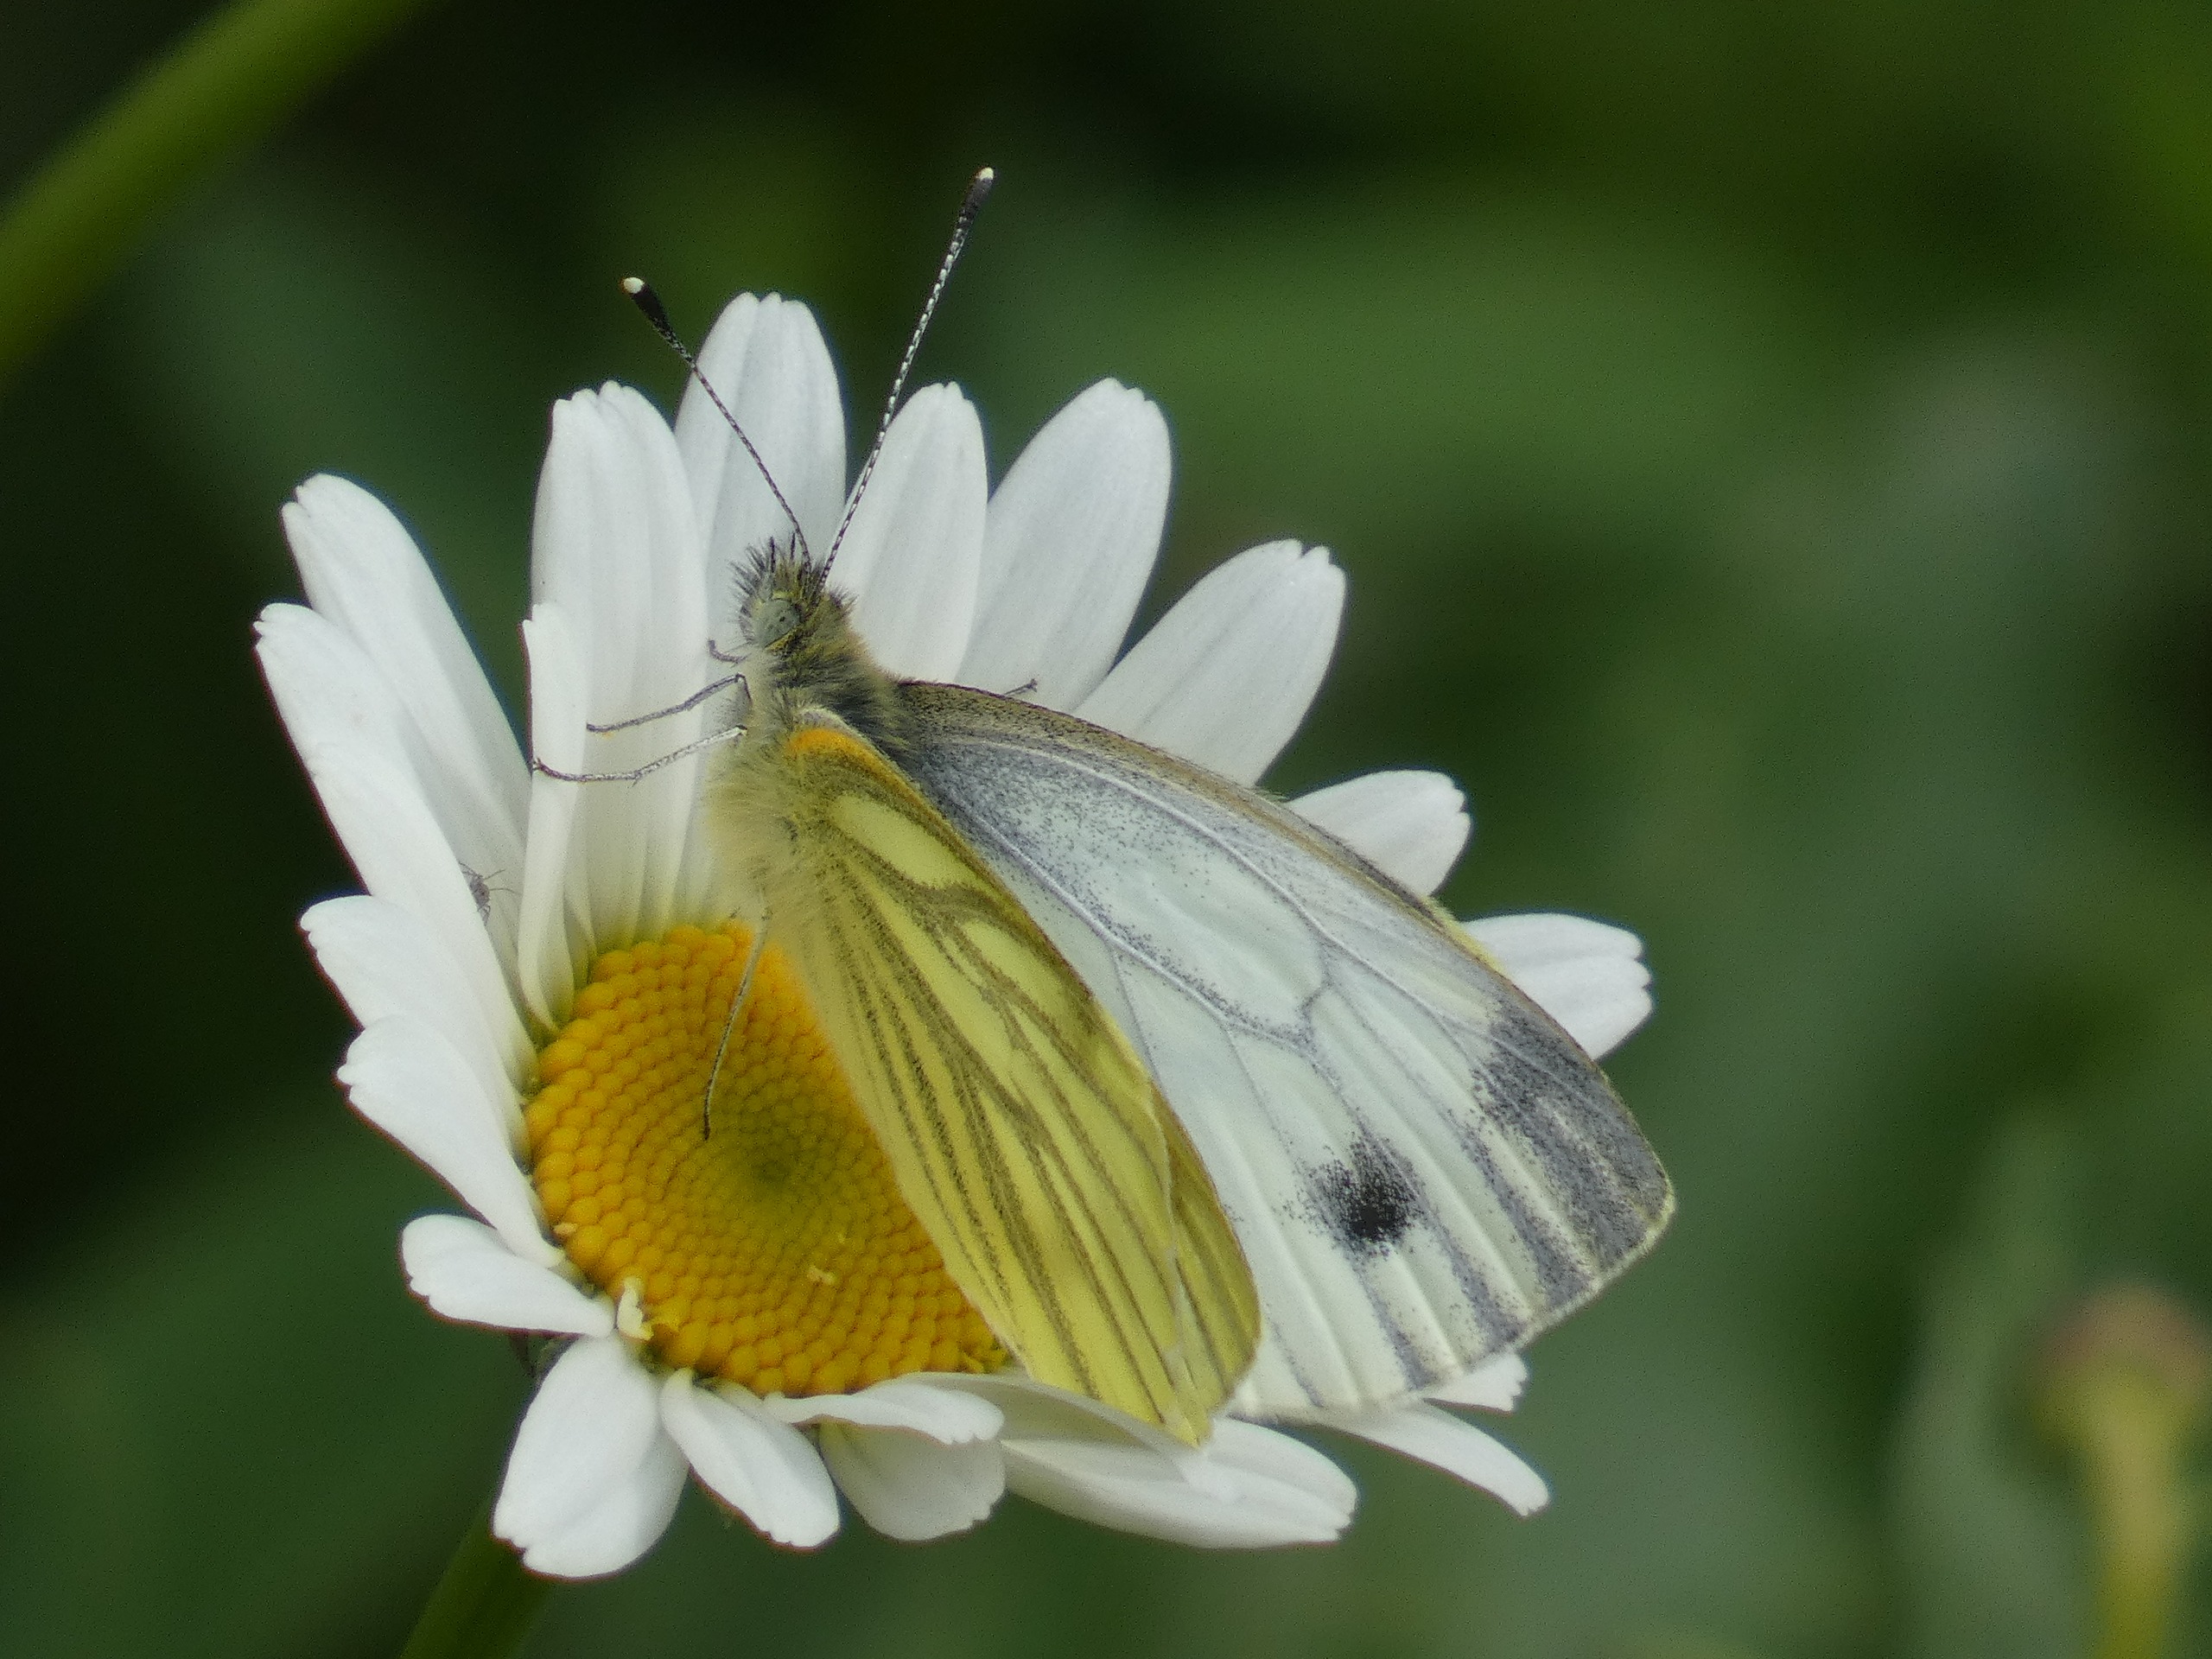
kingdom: Animalia
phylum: Arthropoda
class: Insecta
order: Lepidoptera
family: Pieridae
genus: Pieris
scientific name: Pieris napi
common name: Grønåret kålsommerfugl
